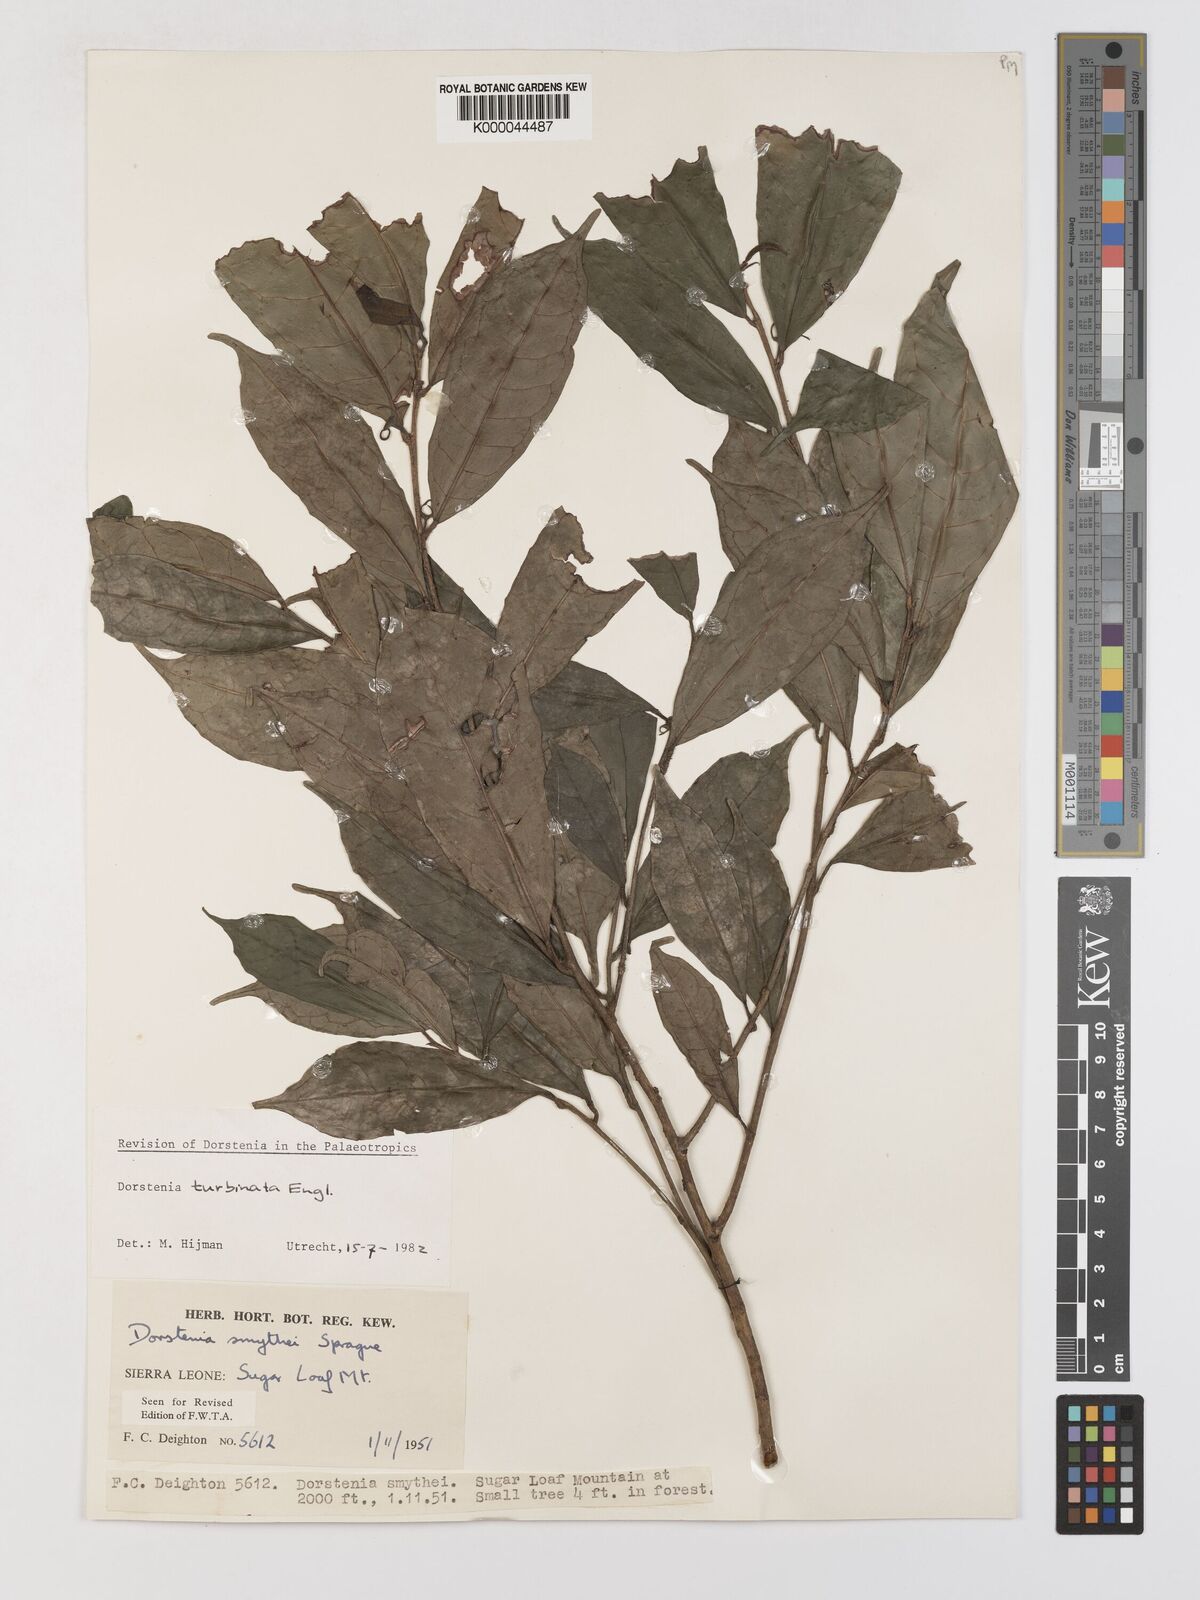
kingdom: Plantae
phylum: Tracheophyta
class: Magnoliopsida
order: Rosales
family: Moraceae
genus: Hijmania
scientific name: Hijmania turbinata
